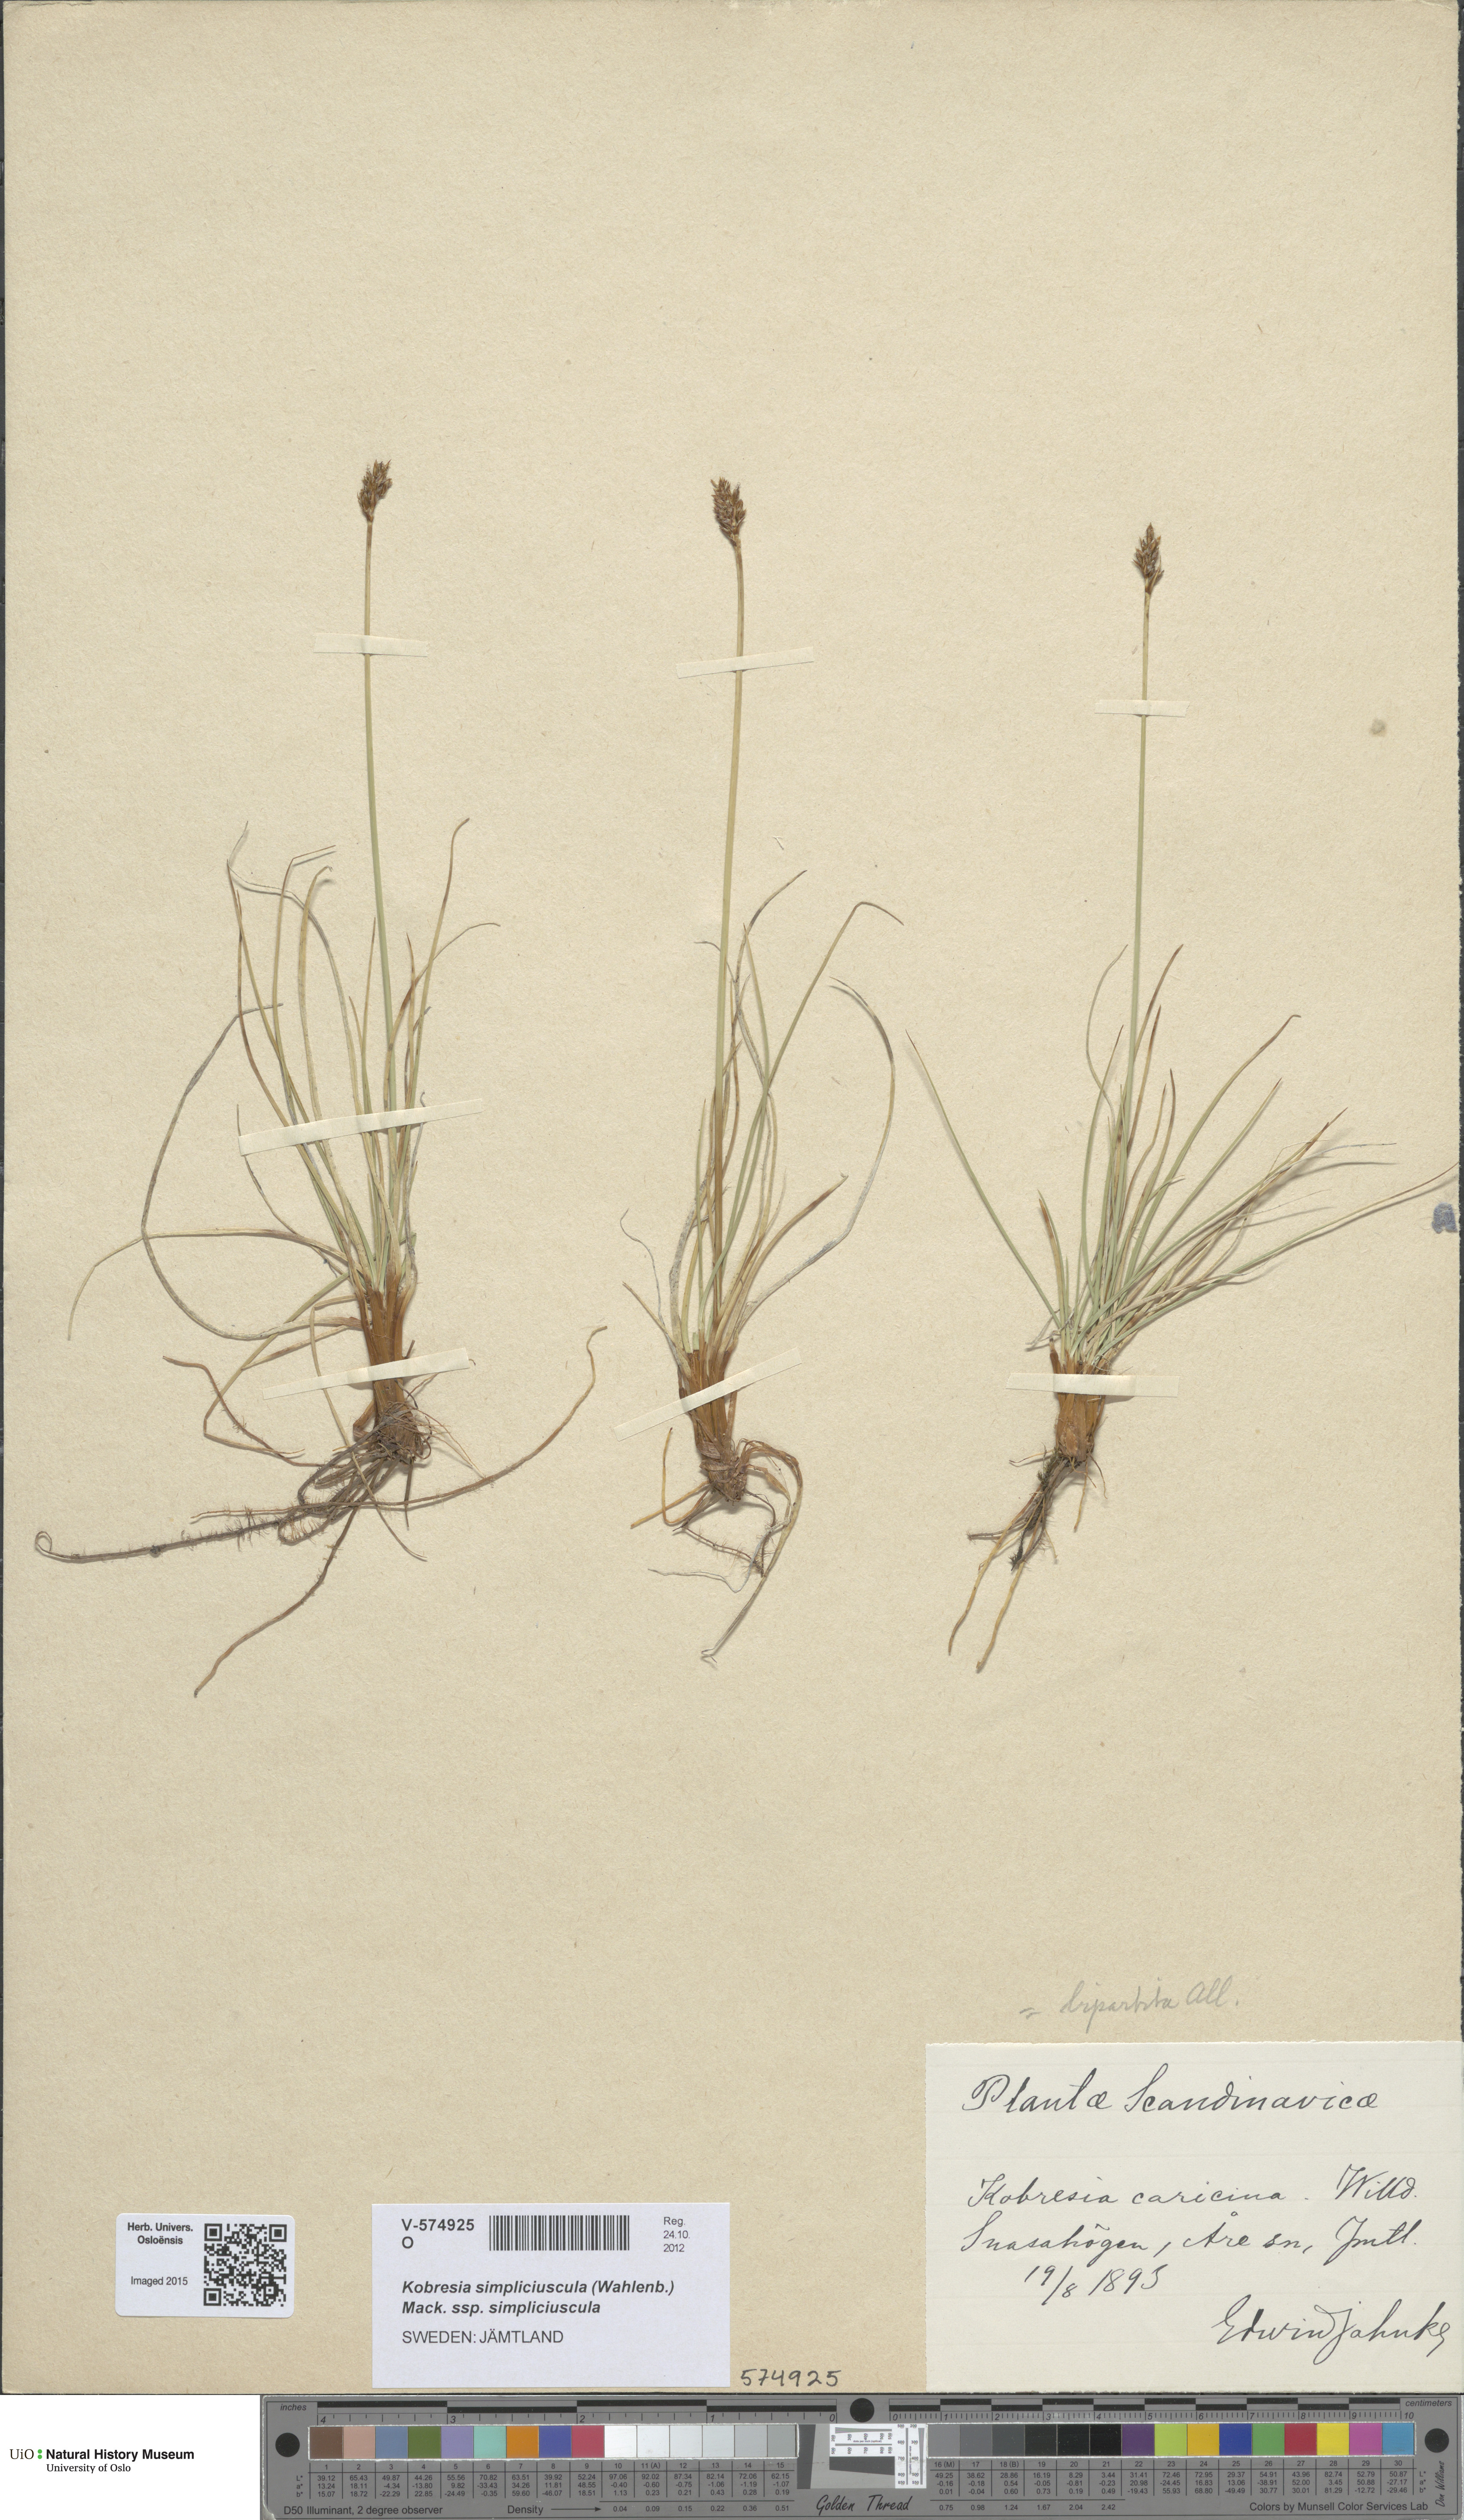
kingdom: Plantae
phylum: Tracheophyta
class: Liliopsida
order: Poales
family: Cyperaceae
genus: Carex
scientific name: Carex simpliciuscula
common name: Simple bog sedge
